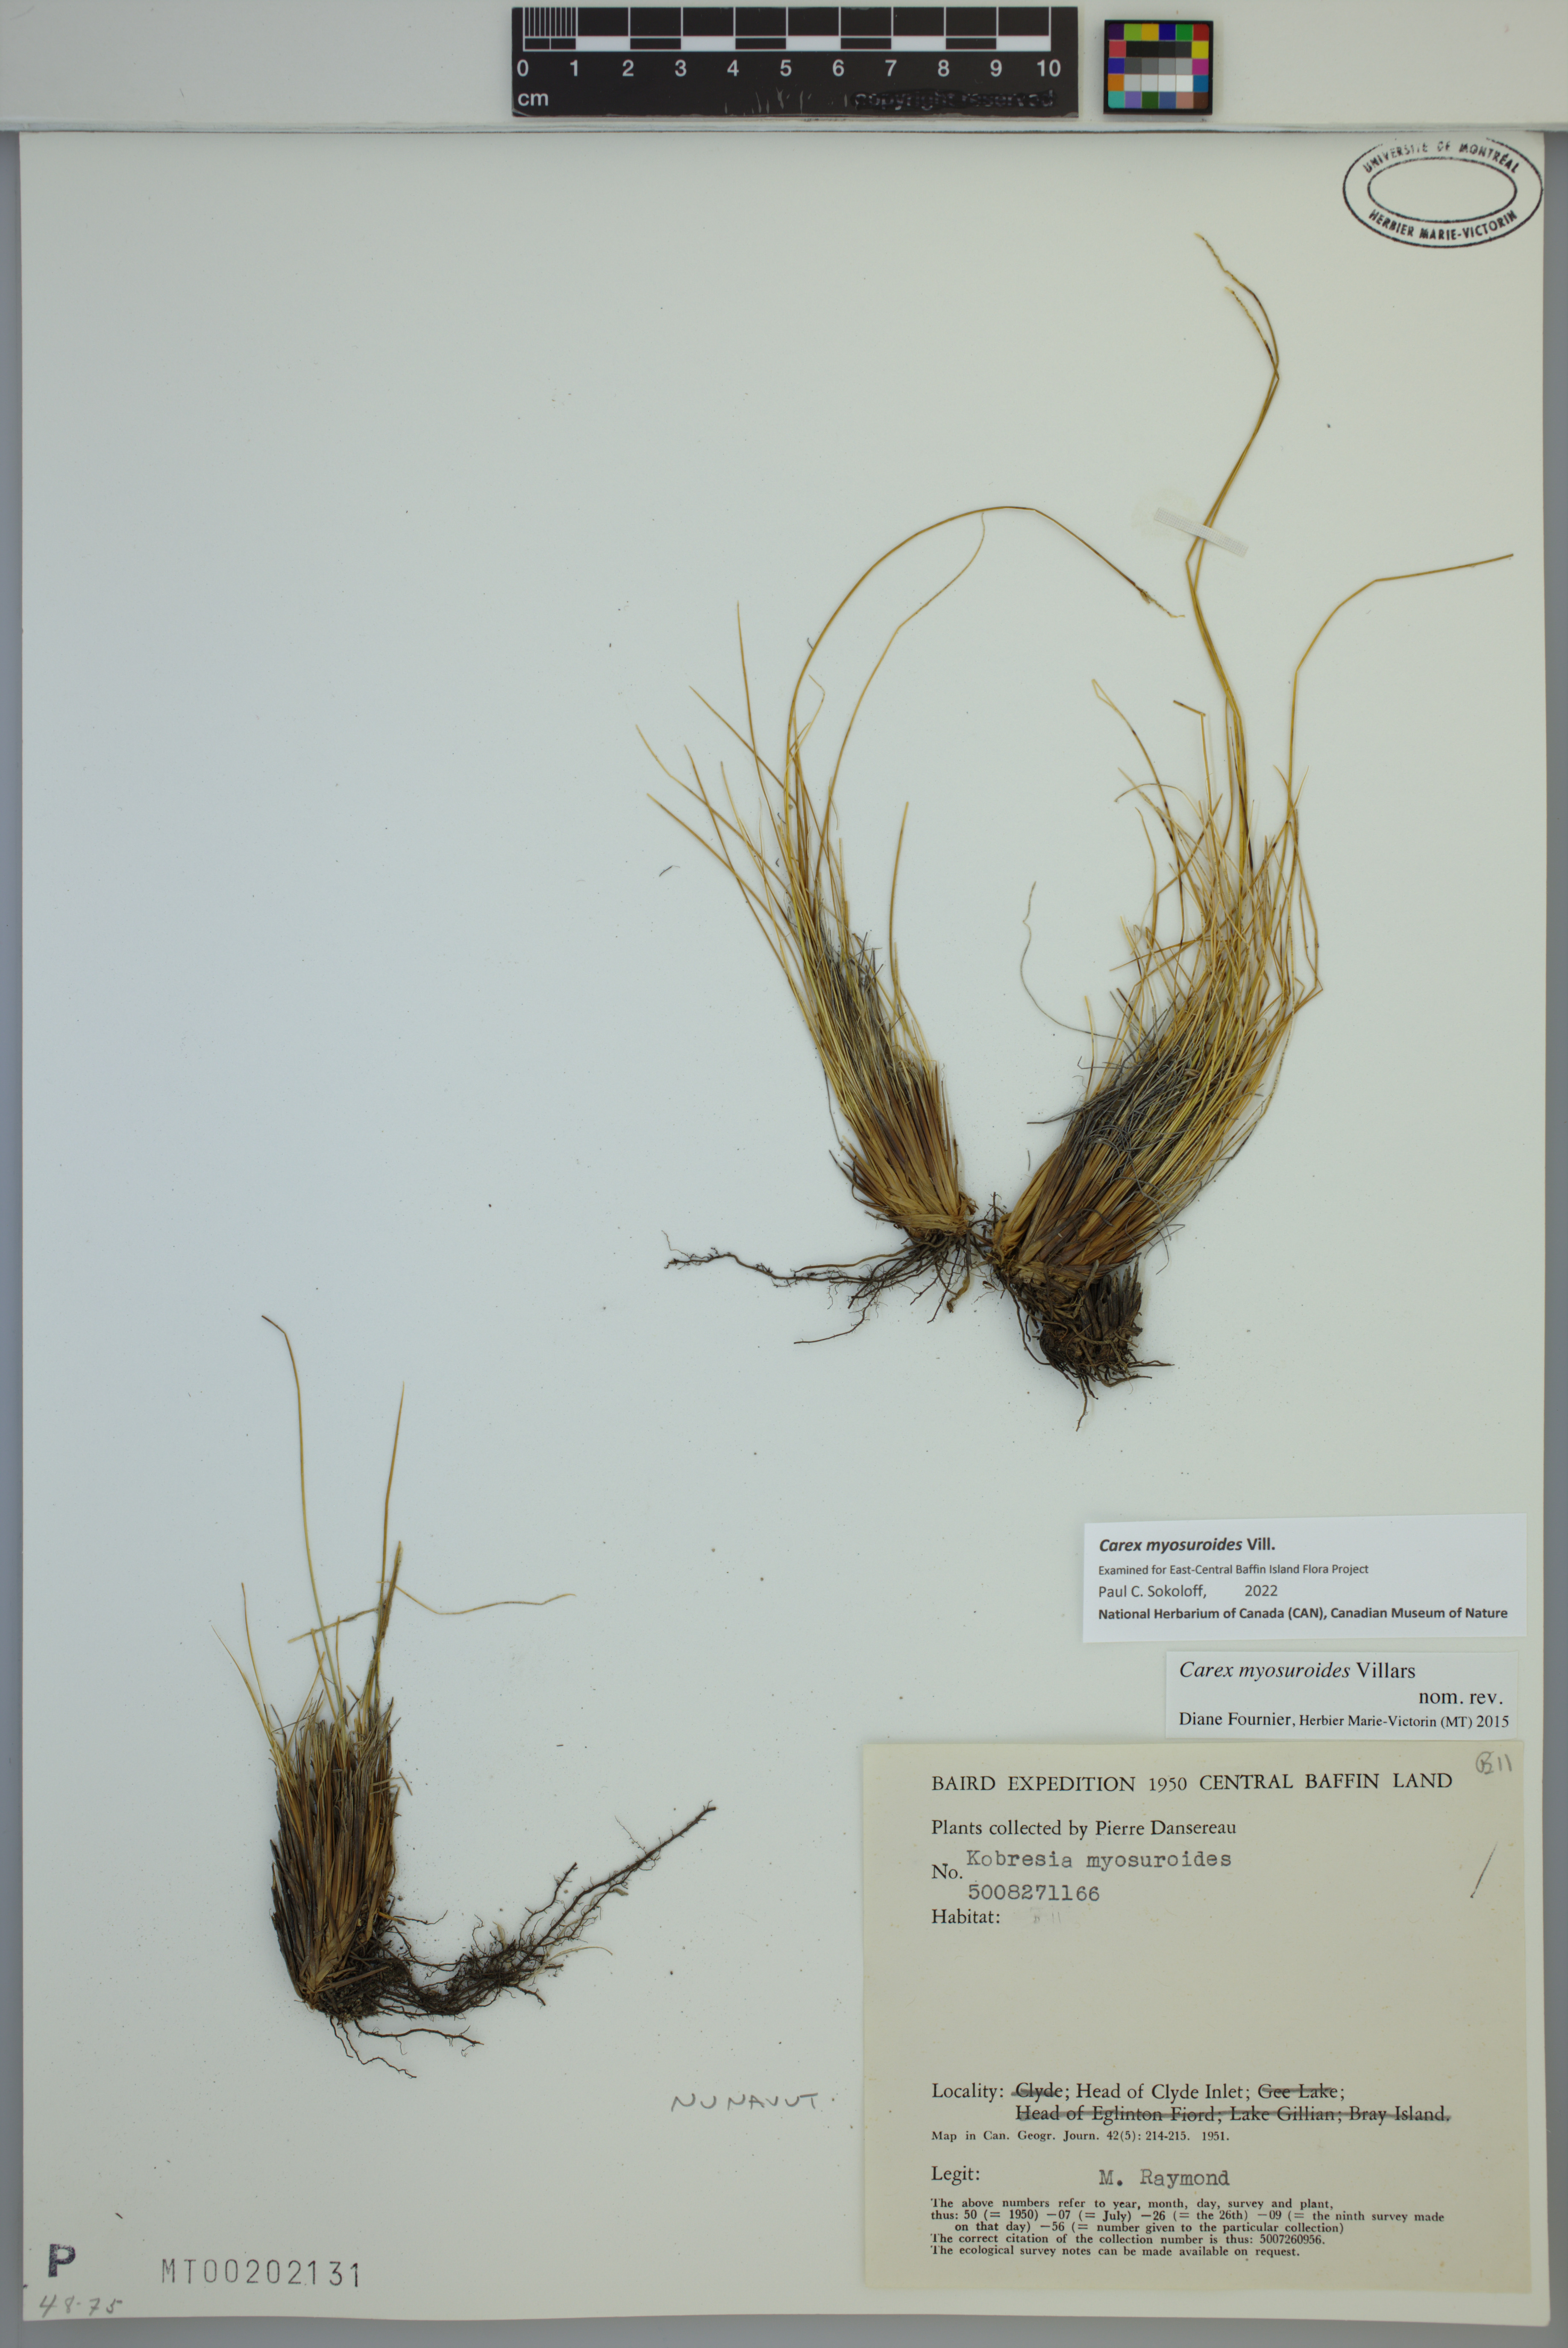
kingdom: Plantae
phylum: Tracheophyta
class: Liliopsida
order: Poales
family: Cyperaceae
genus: Carex
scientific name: Carex myosuroides
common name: Bellard's bog sedge
